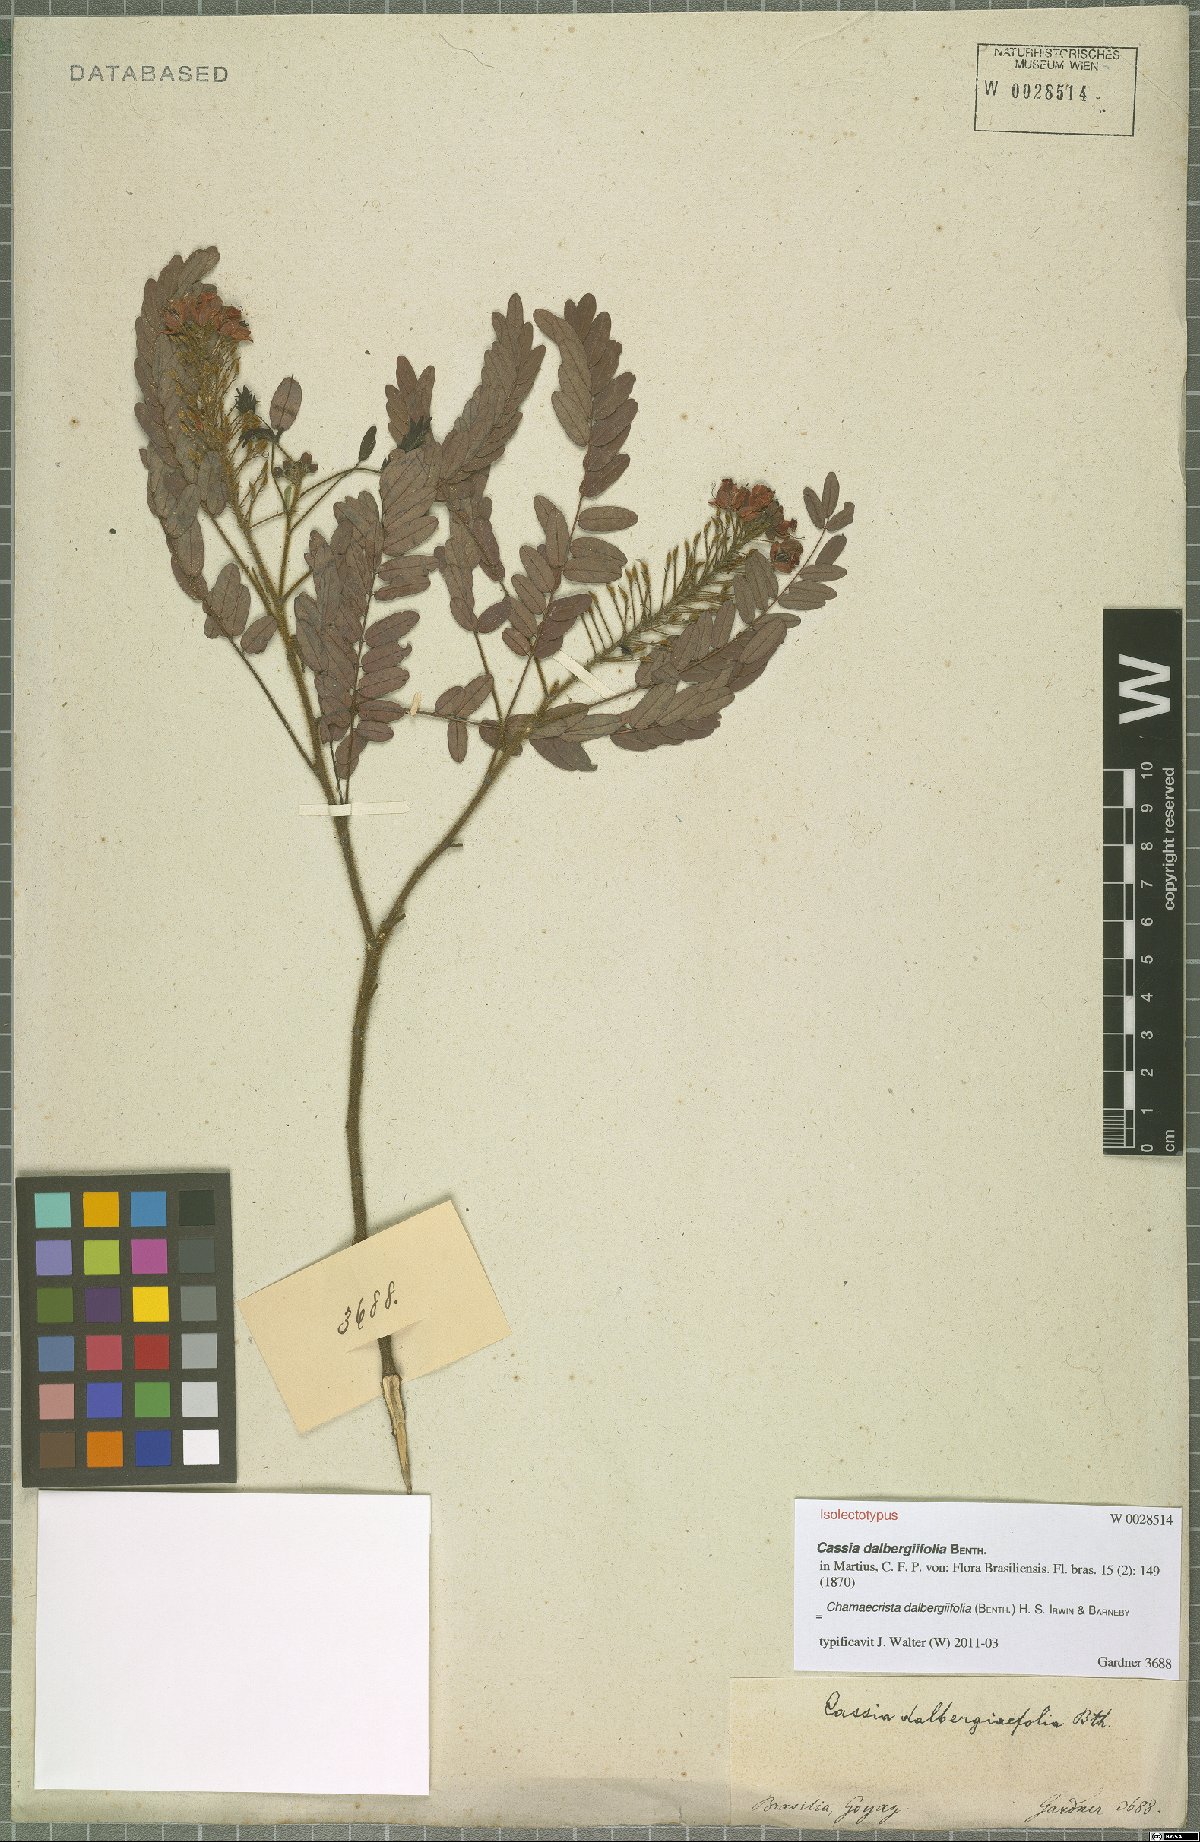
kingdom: Plantae
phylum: Tracheophyta
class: Magnoliopsida
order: Fabales
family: Fabaceae
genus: Chamaecrista
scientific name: Chamaecrista dalbergiifolia
